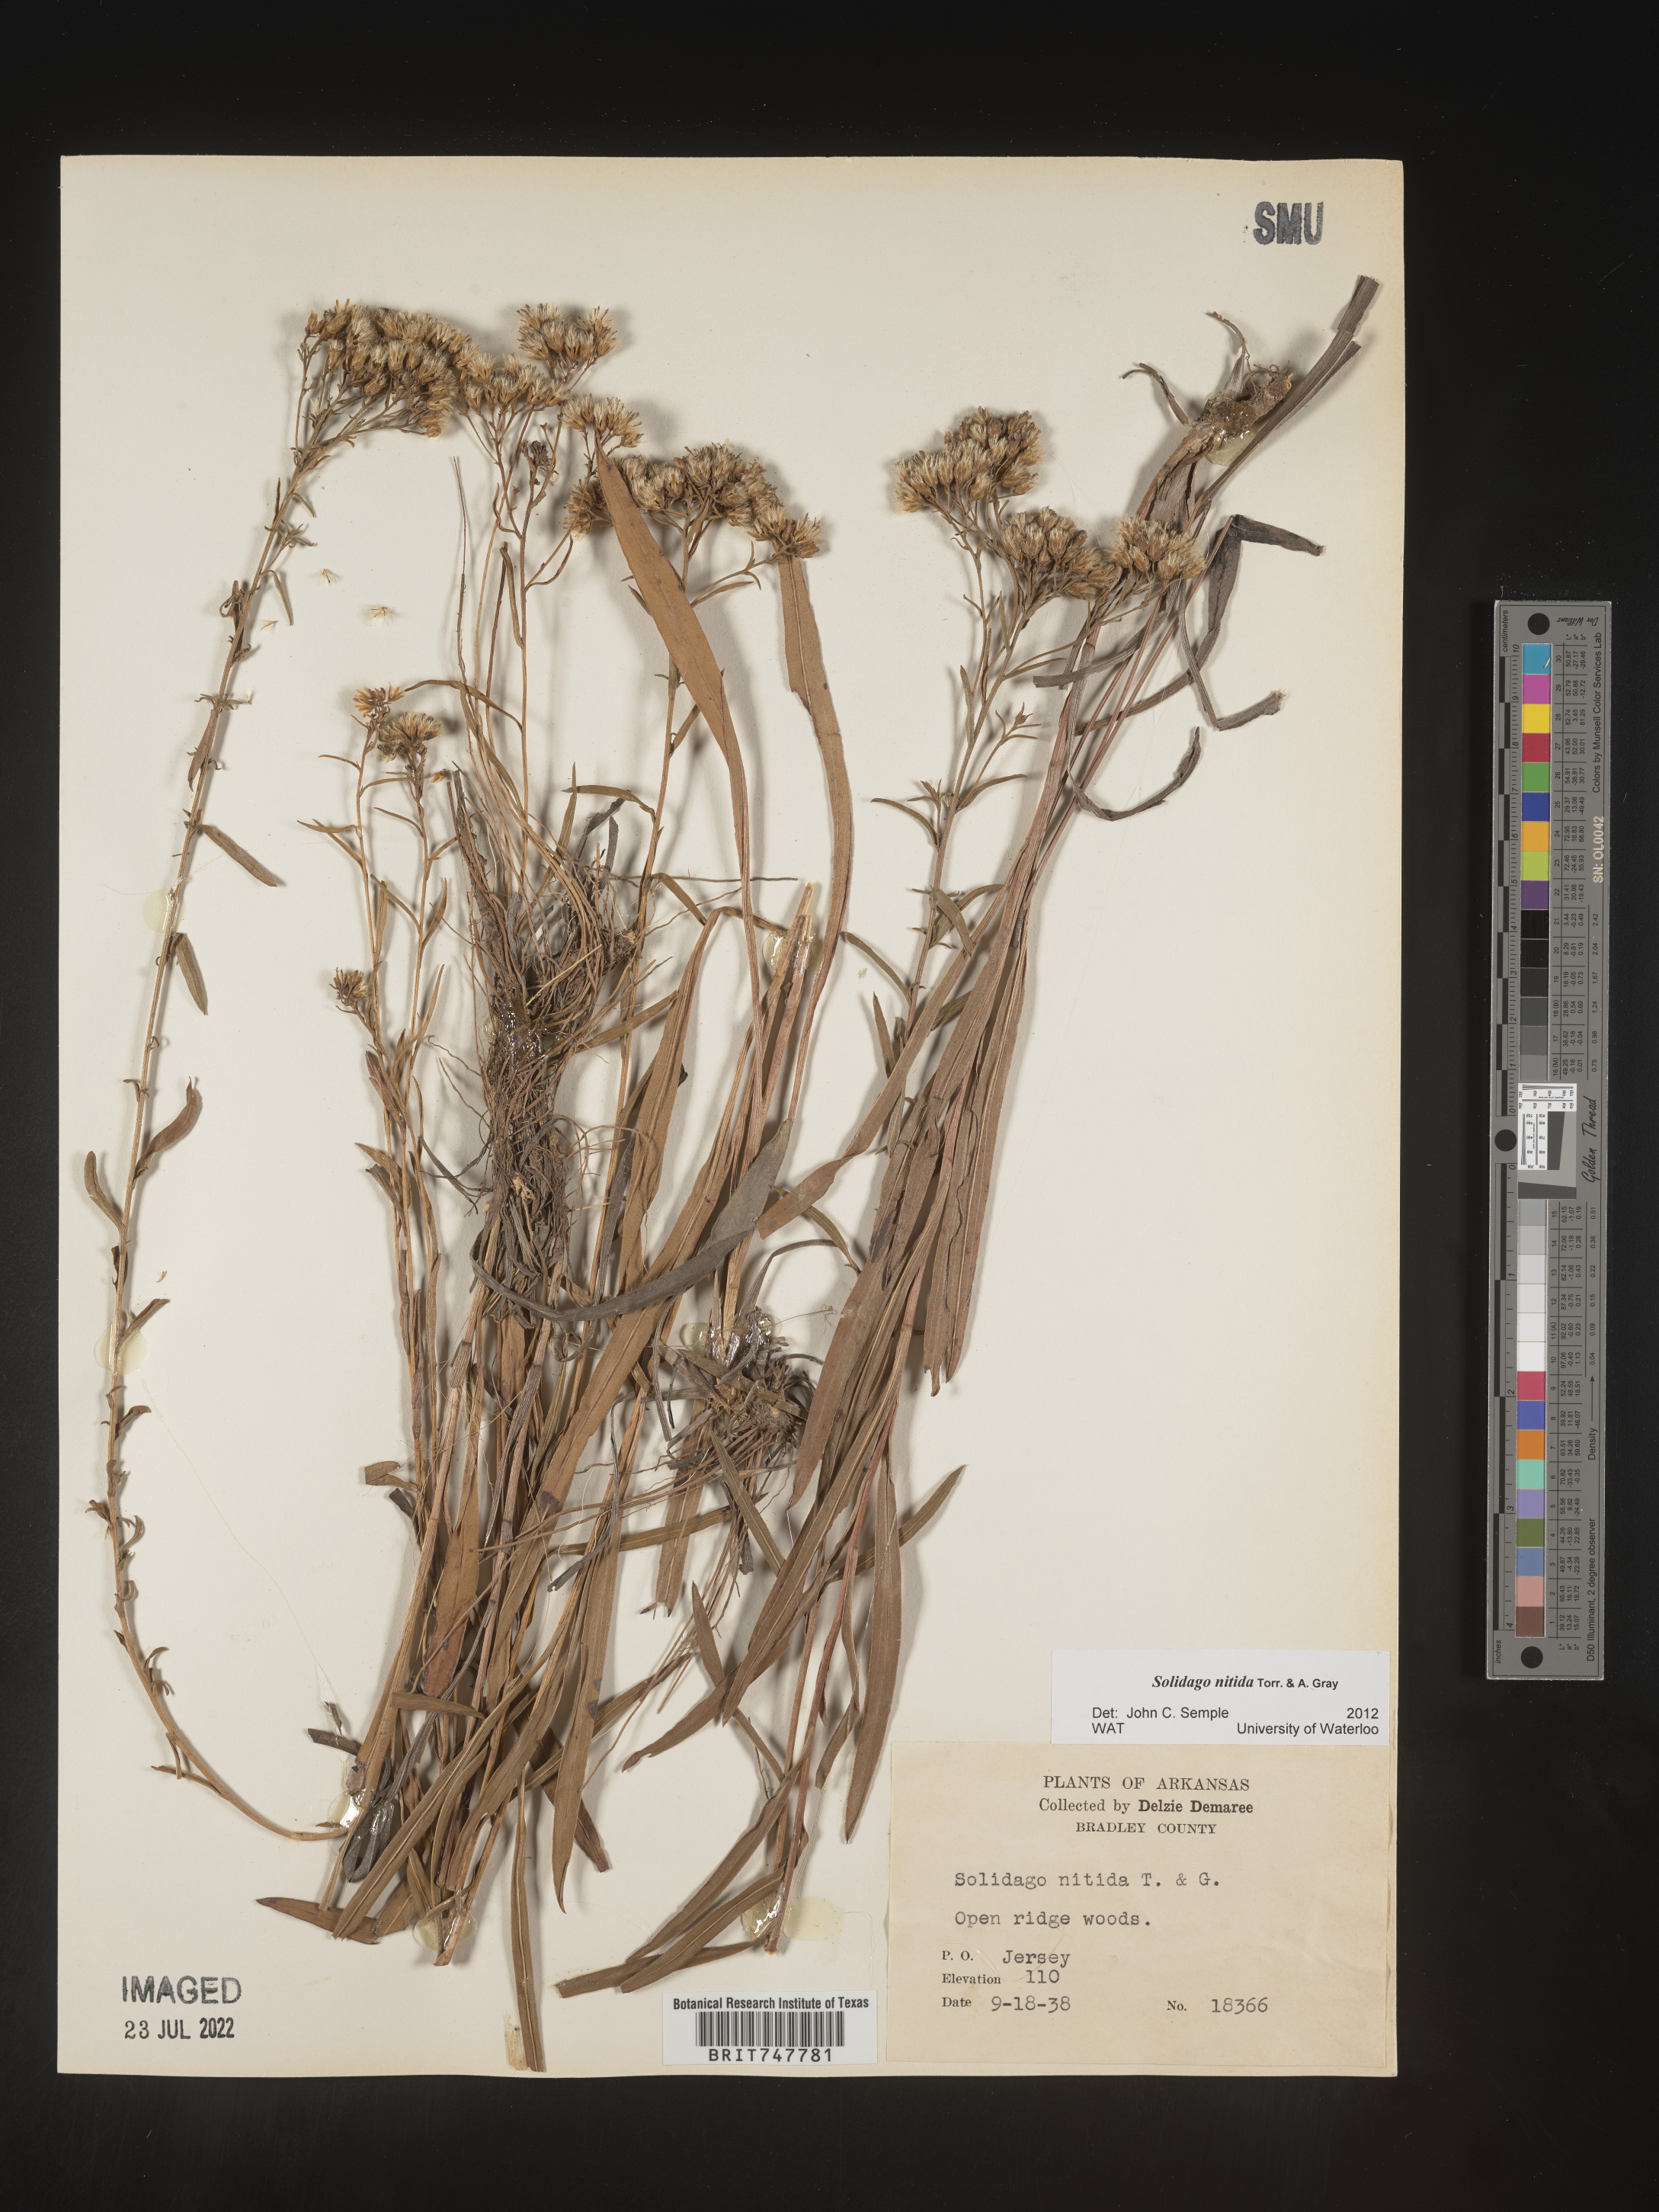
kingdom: Plantae
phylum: Tracheophyta
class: Magnoliopsida
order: Asterales
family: Asteraceae
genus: Solidago
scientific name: Solidago nitida
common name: Shiny goldenrod
